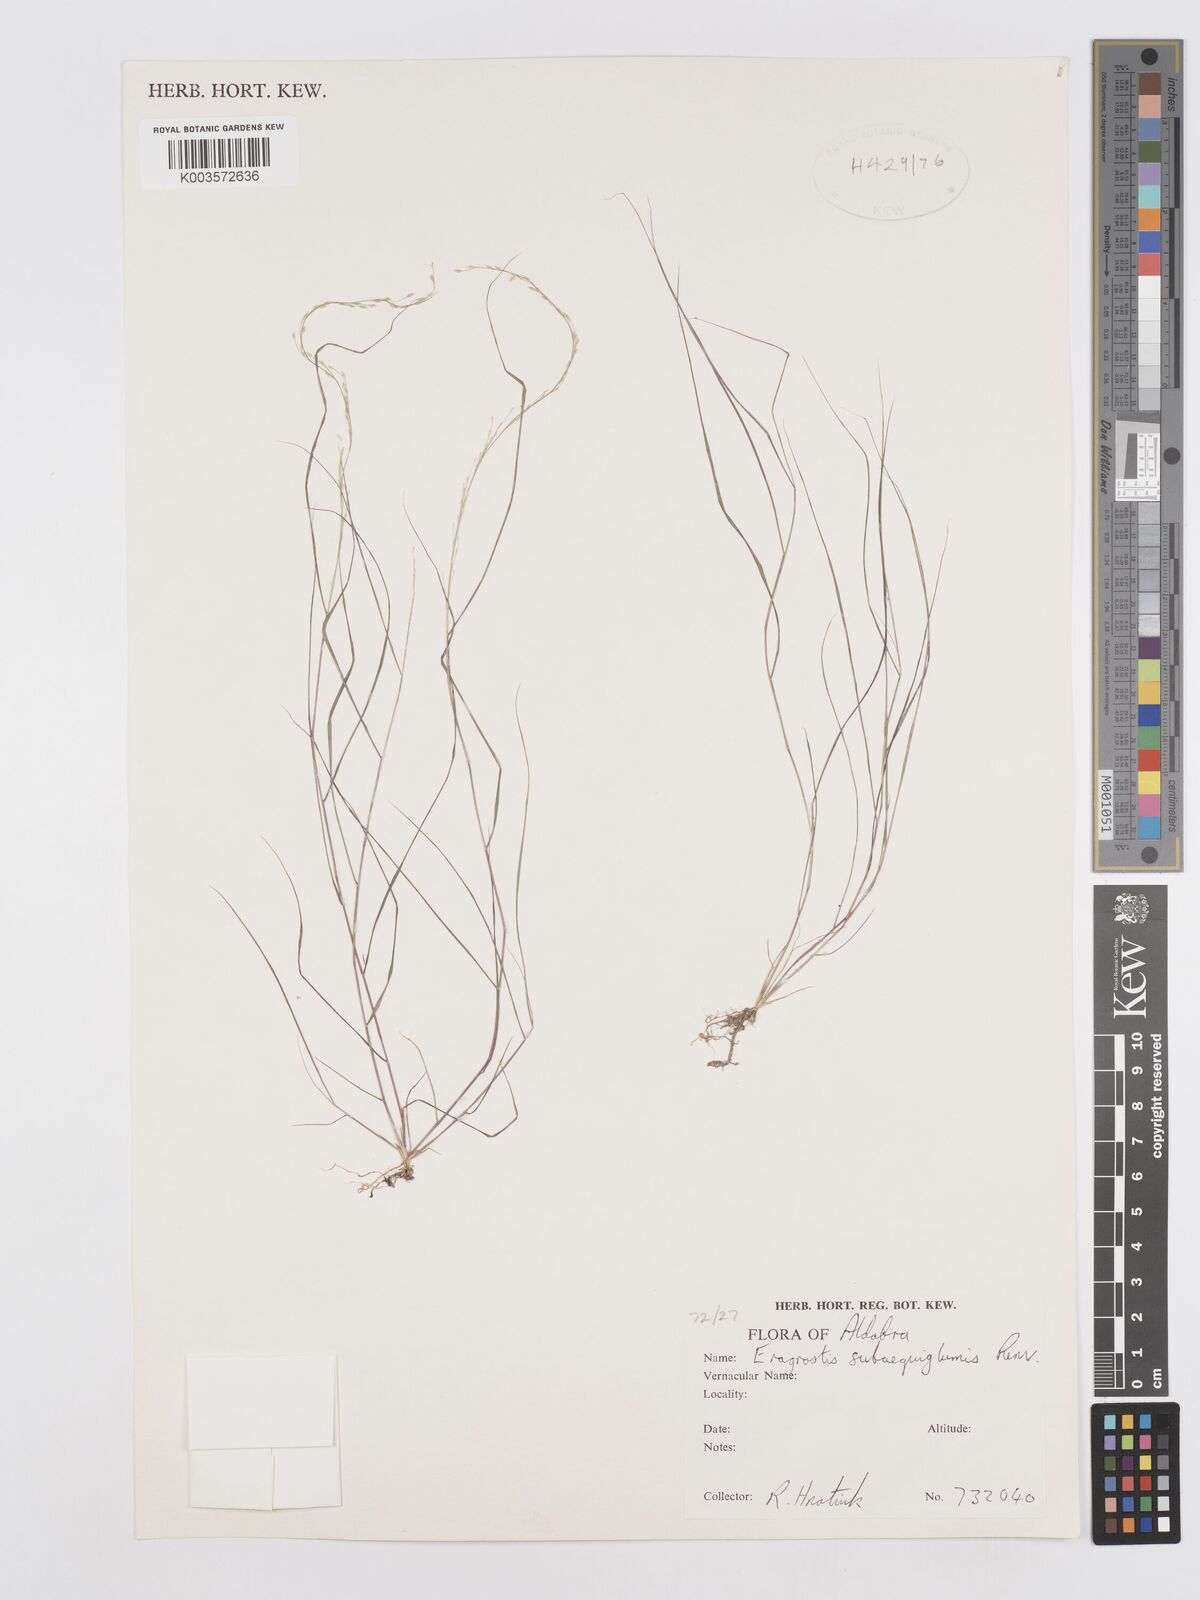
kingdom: Plantae
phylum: Tracheophyta
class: Liliopsida
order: Poales
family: Poaceae
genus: Eragrostis
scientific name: Eragrostis subaequiglumis
